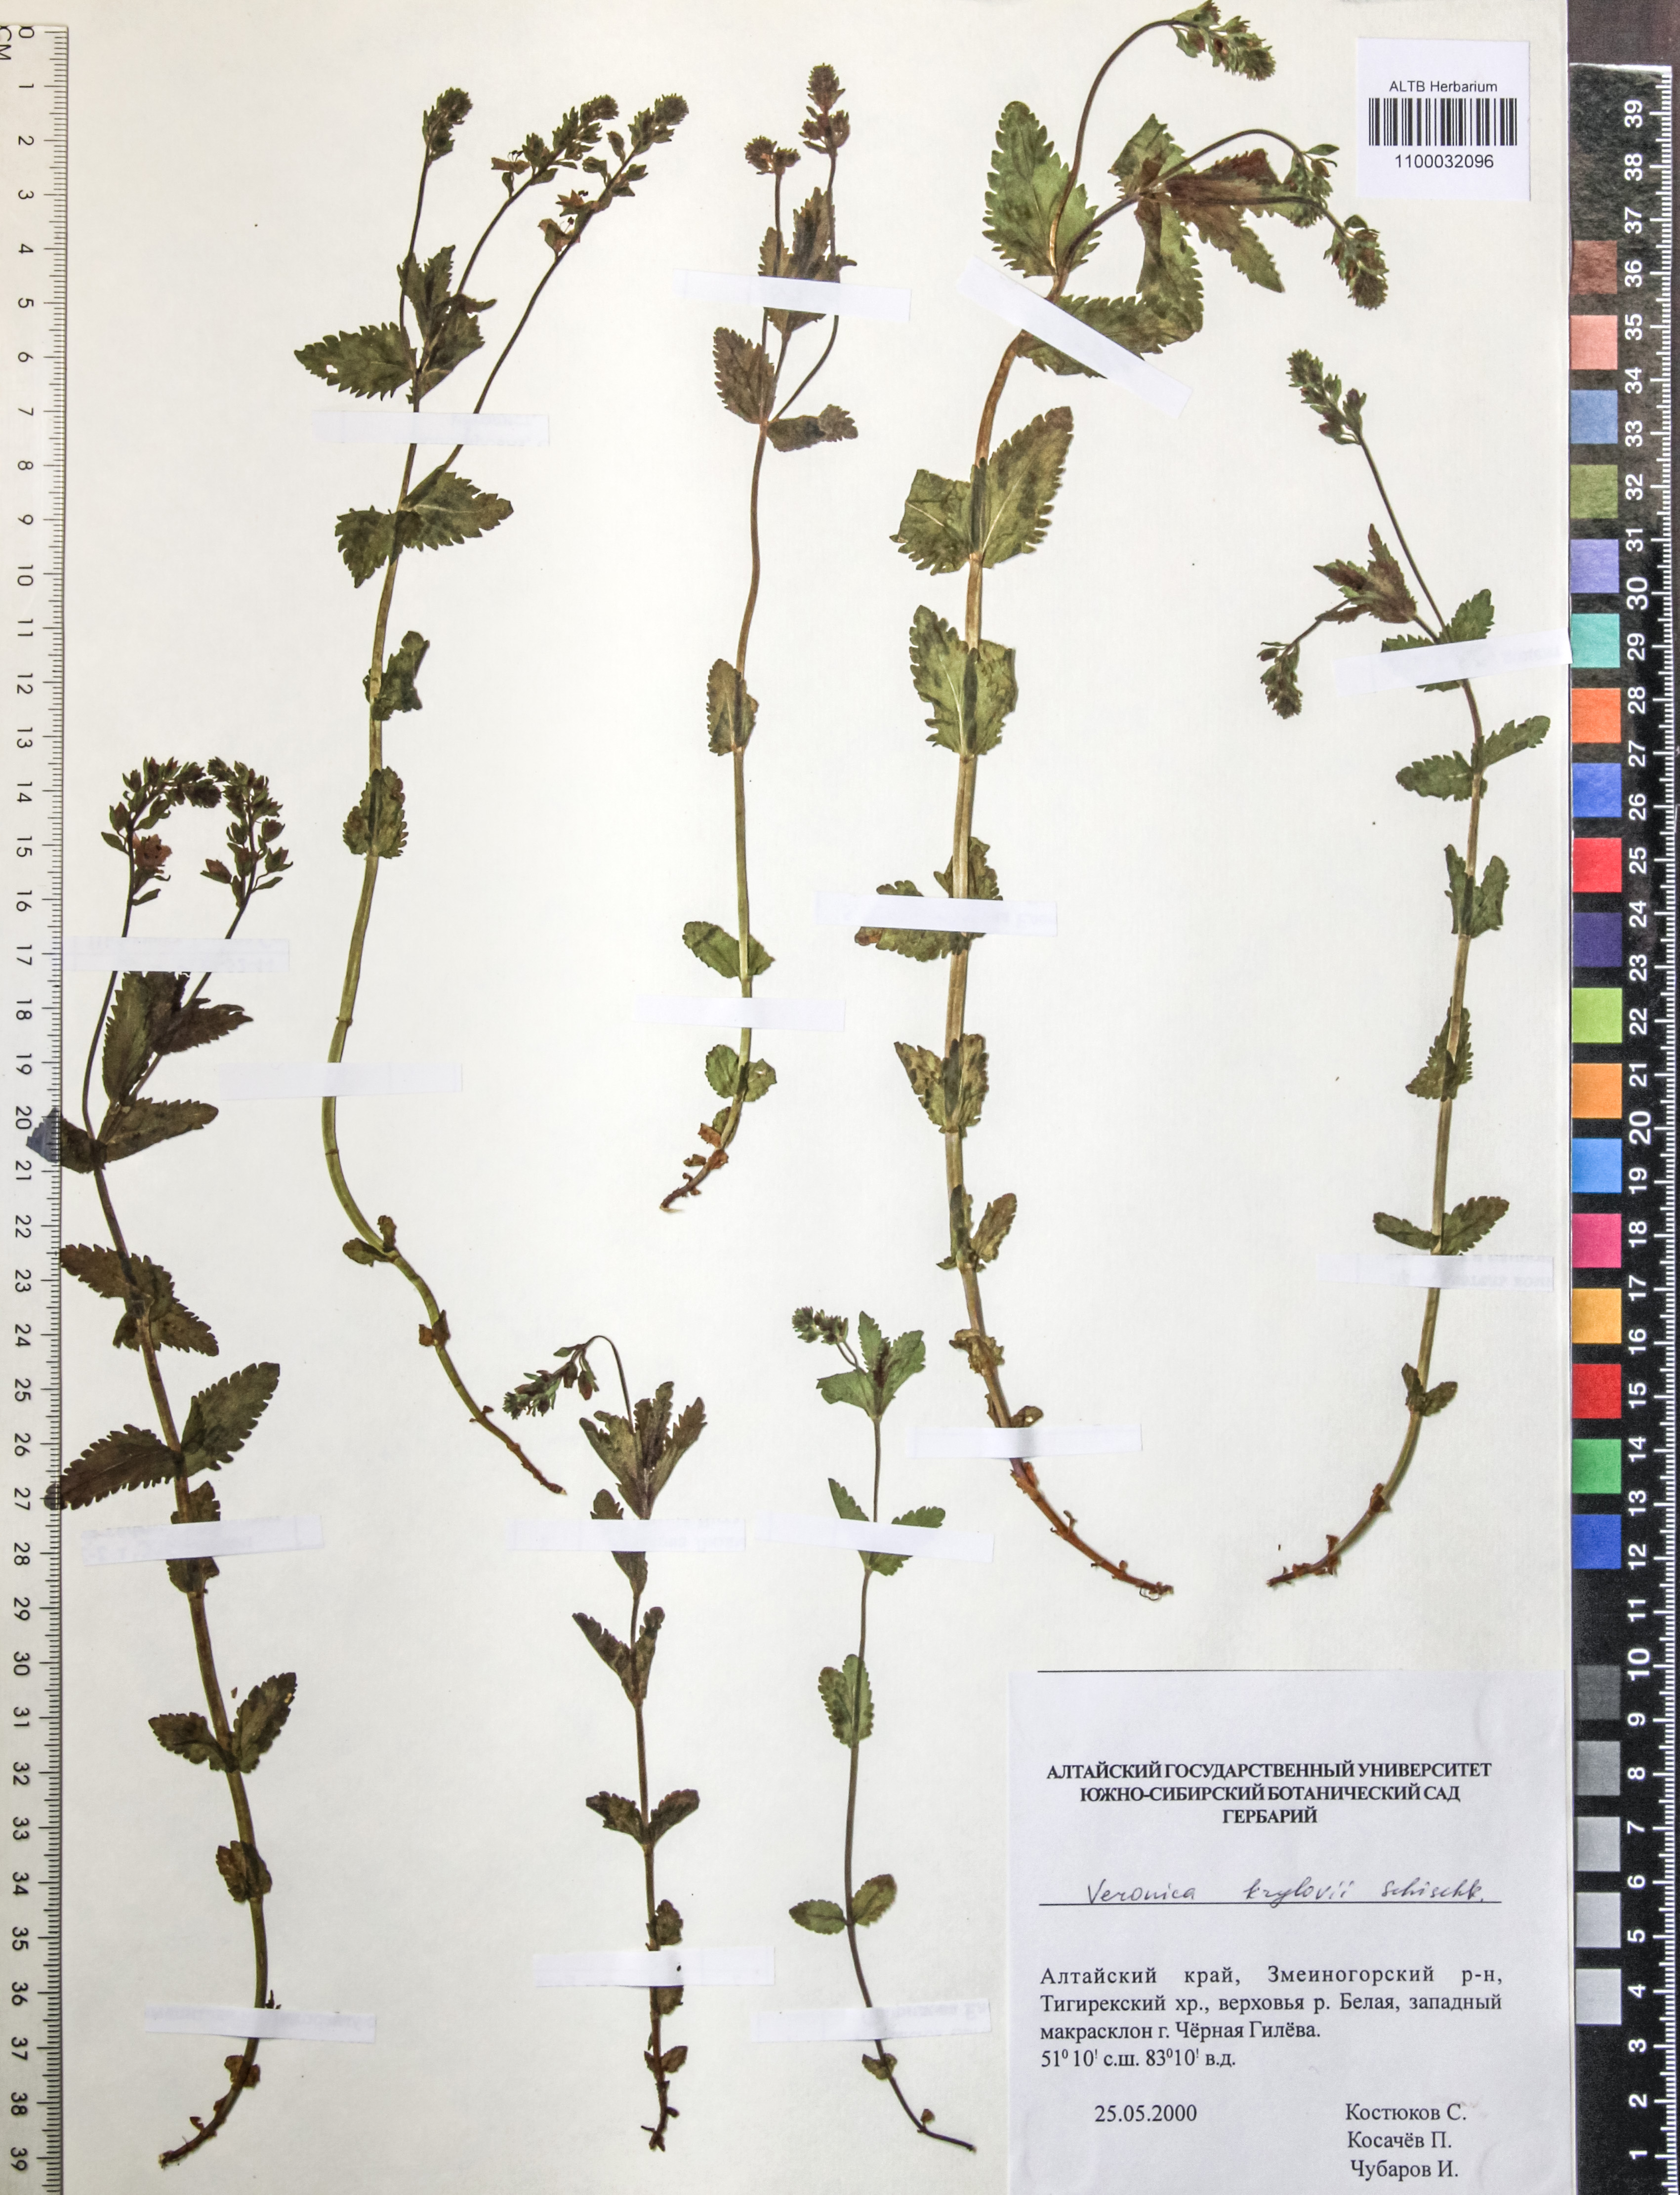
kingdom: Plantae
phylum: Tracheophyta
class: Magnoliopsida
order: Lamiales
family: Plantaginaceae
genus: Veronica
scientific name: Veronica krylovii
